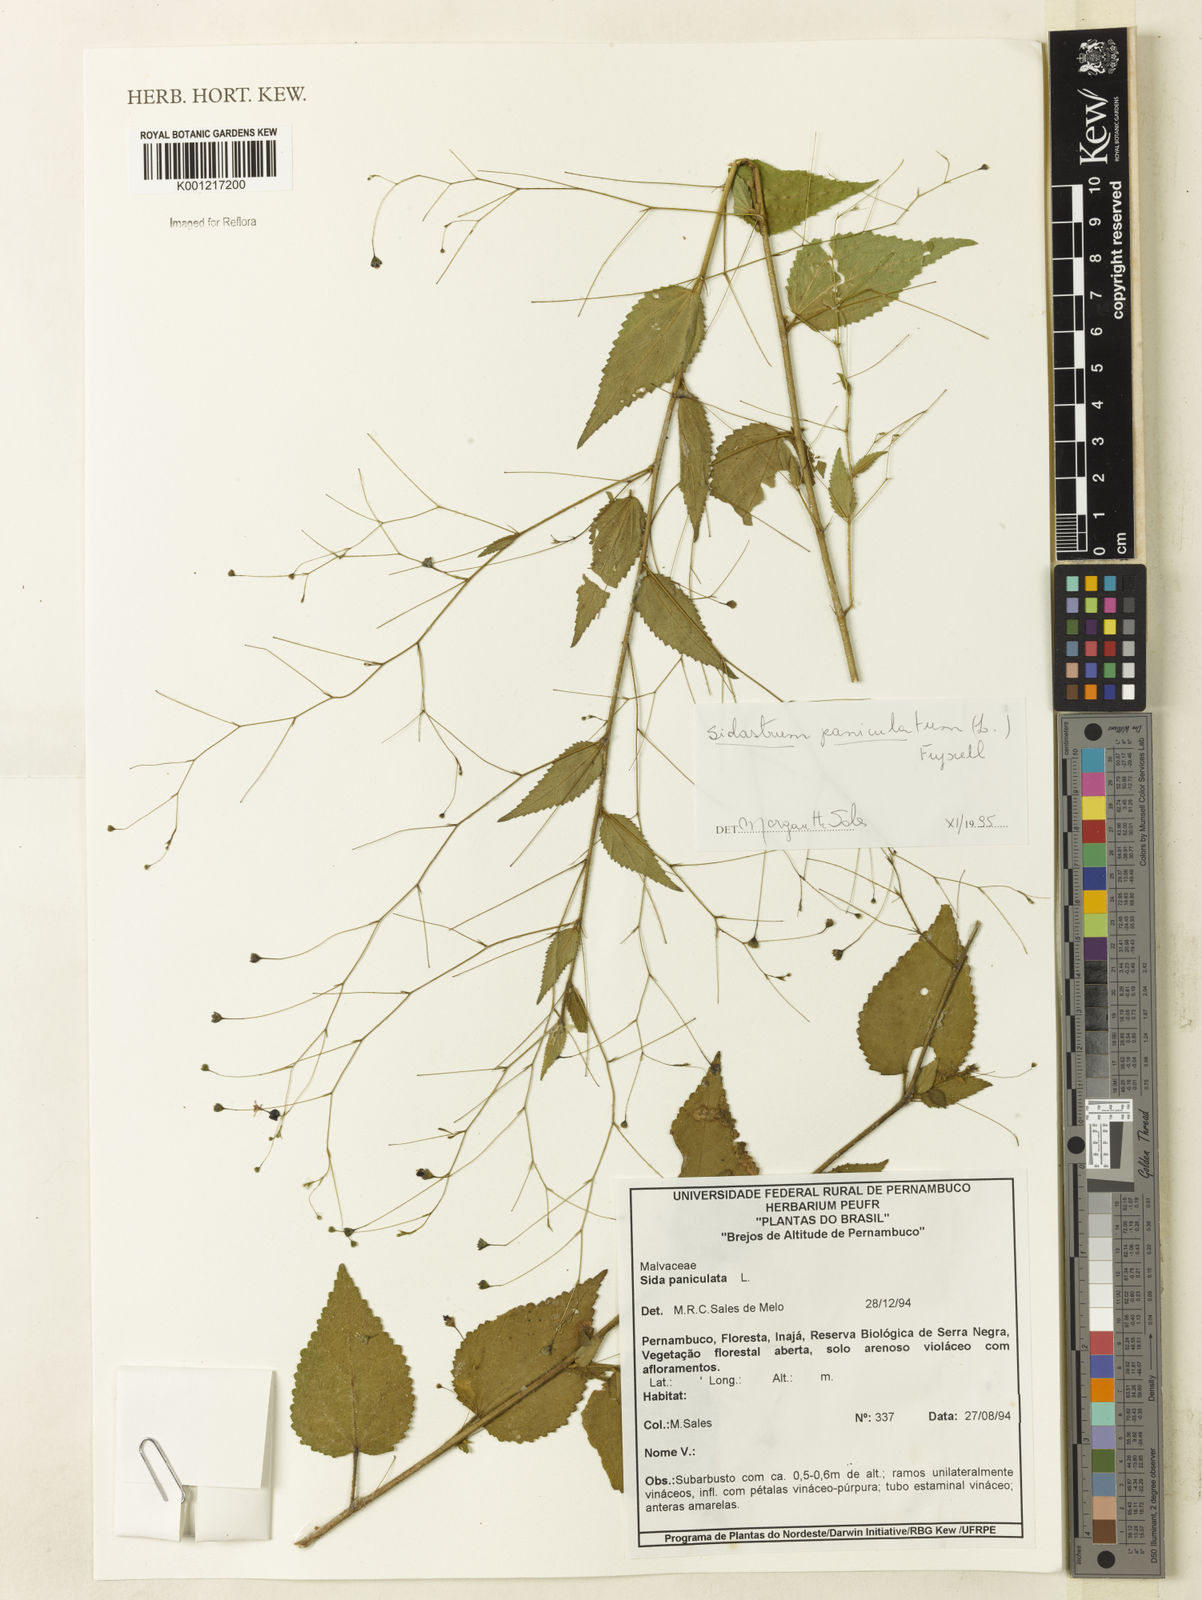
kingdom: Plantae
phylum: Tracheophyta
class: Magnoliopsida
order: Malvales
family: Malvaceae
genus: Sidastrum
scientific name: Sidastrum paniculatum
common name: Panicled sandmallow
